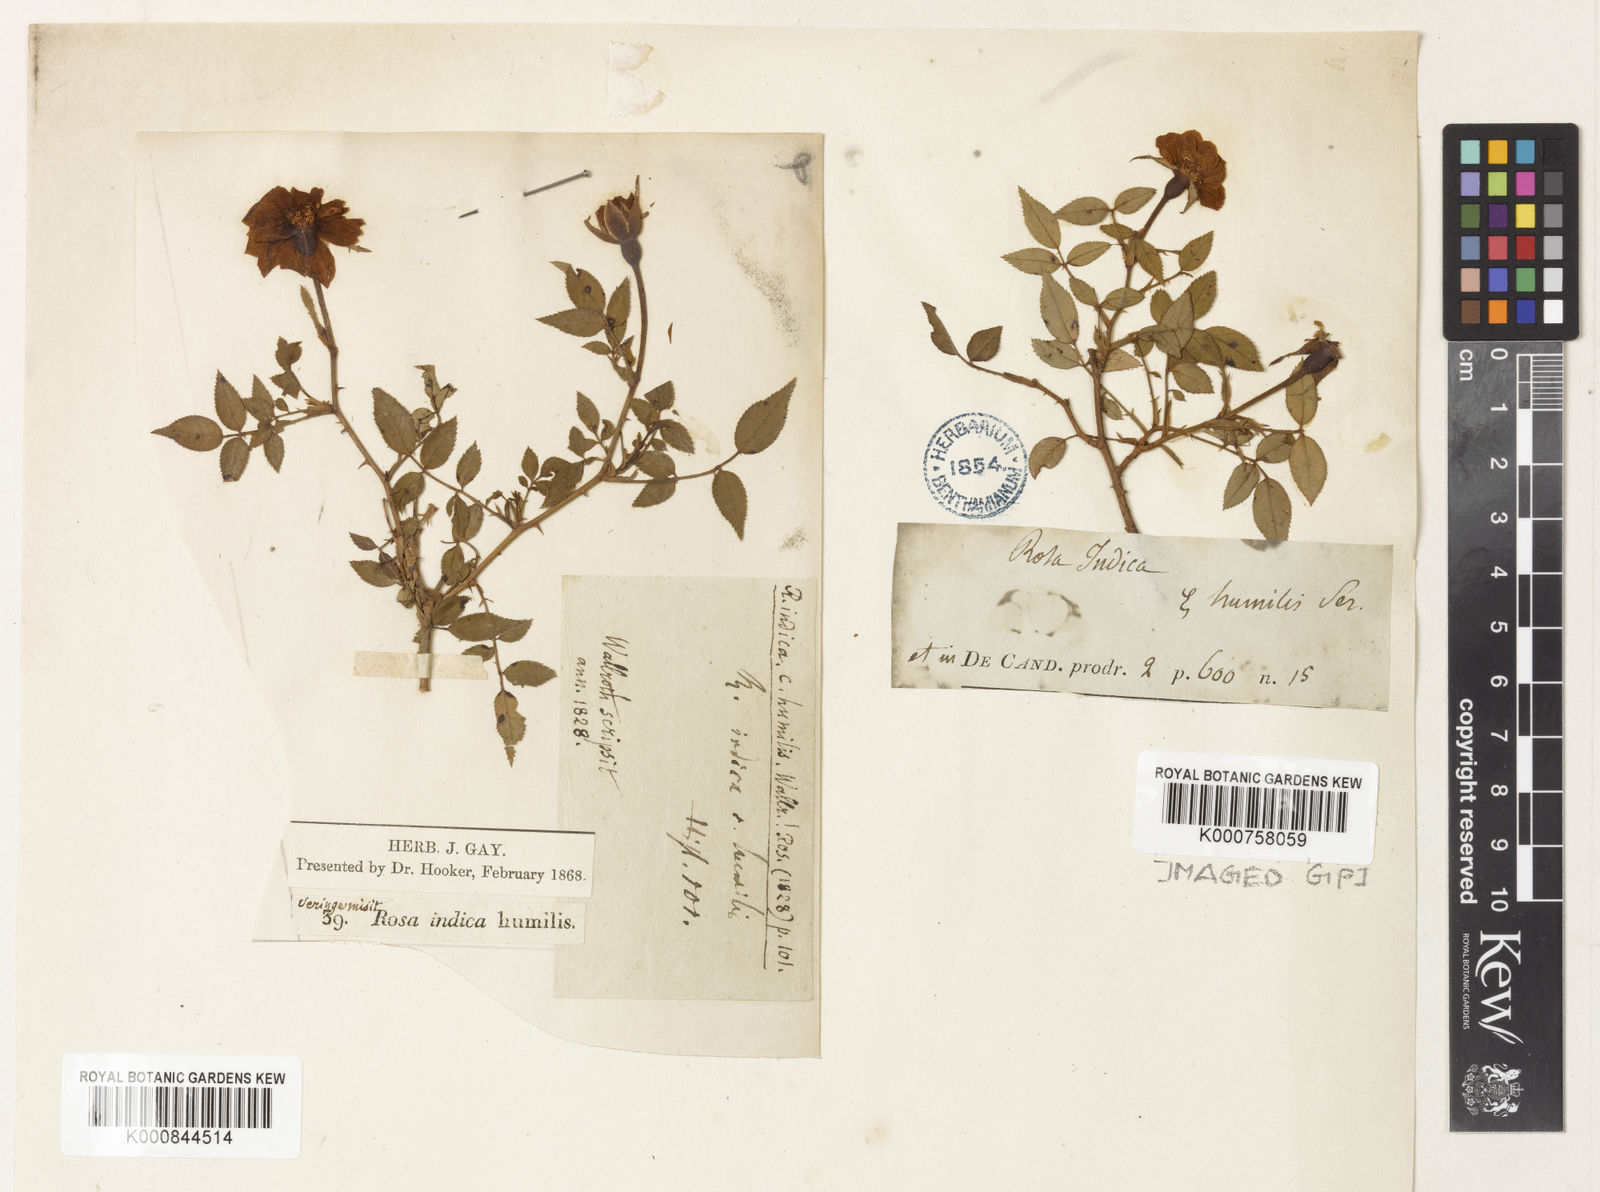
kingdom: Plantae
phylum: Tracheophyta
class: Magnoliopsida
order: Rosales
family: Rosaceae
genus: Rosa
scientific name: Rosa chinensis
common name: China rose
